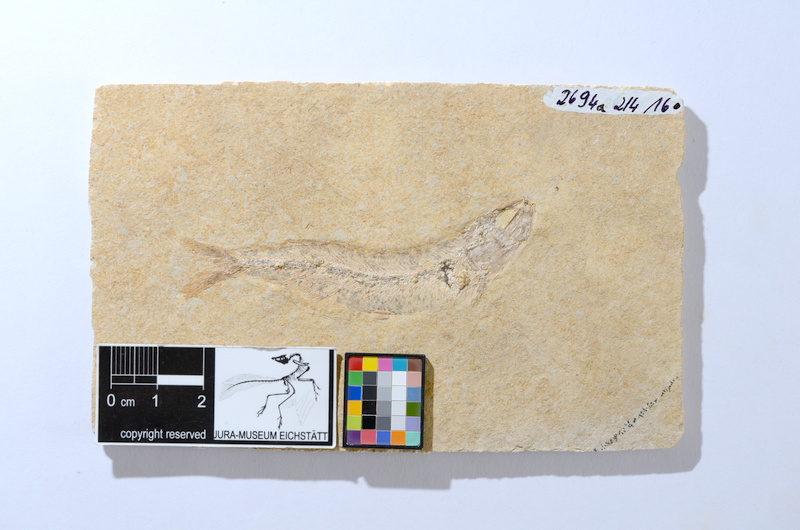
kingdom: Animalia
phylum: Chordata
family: Allothrissopidae
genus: Allothrissops
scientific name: Allothrissops mesogaster
